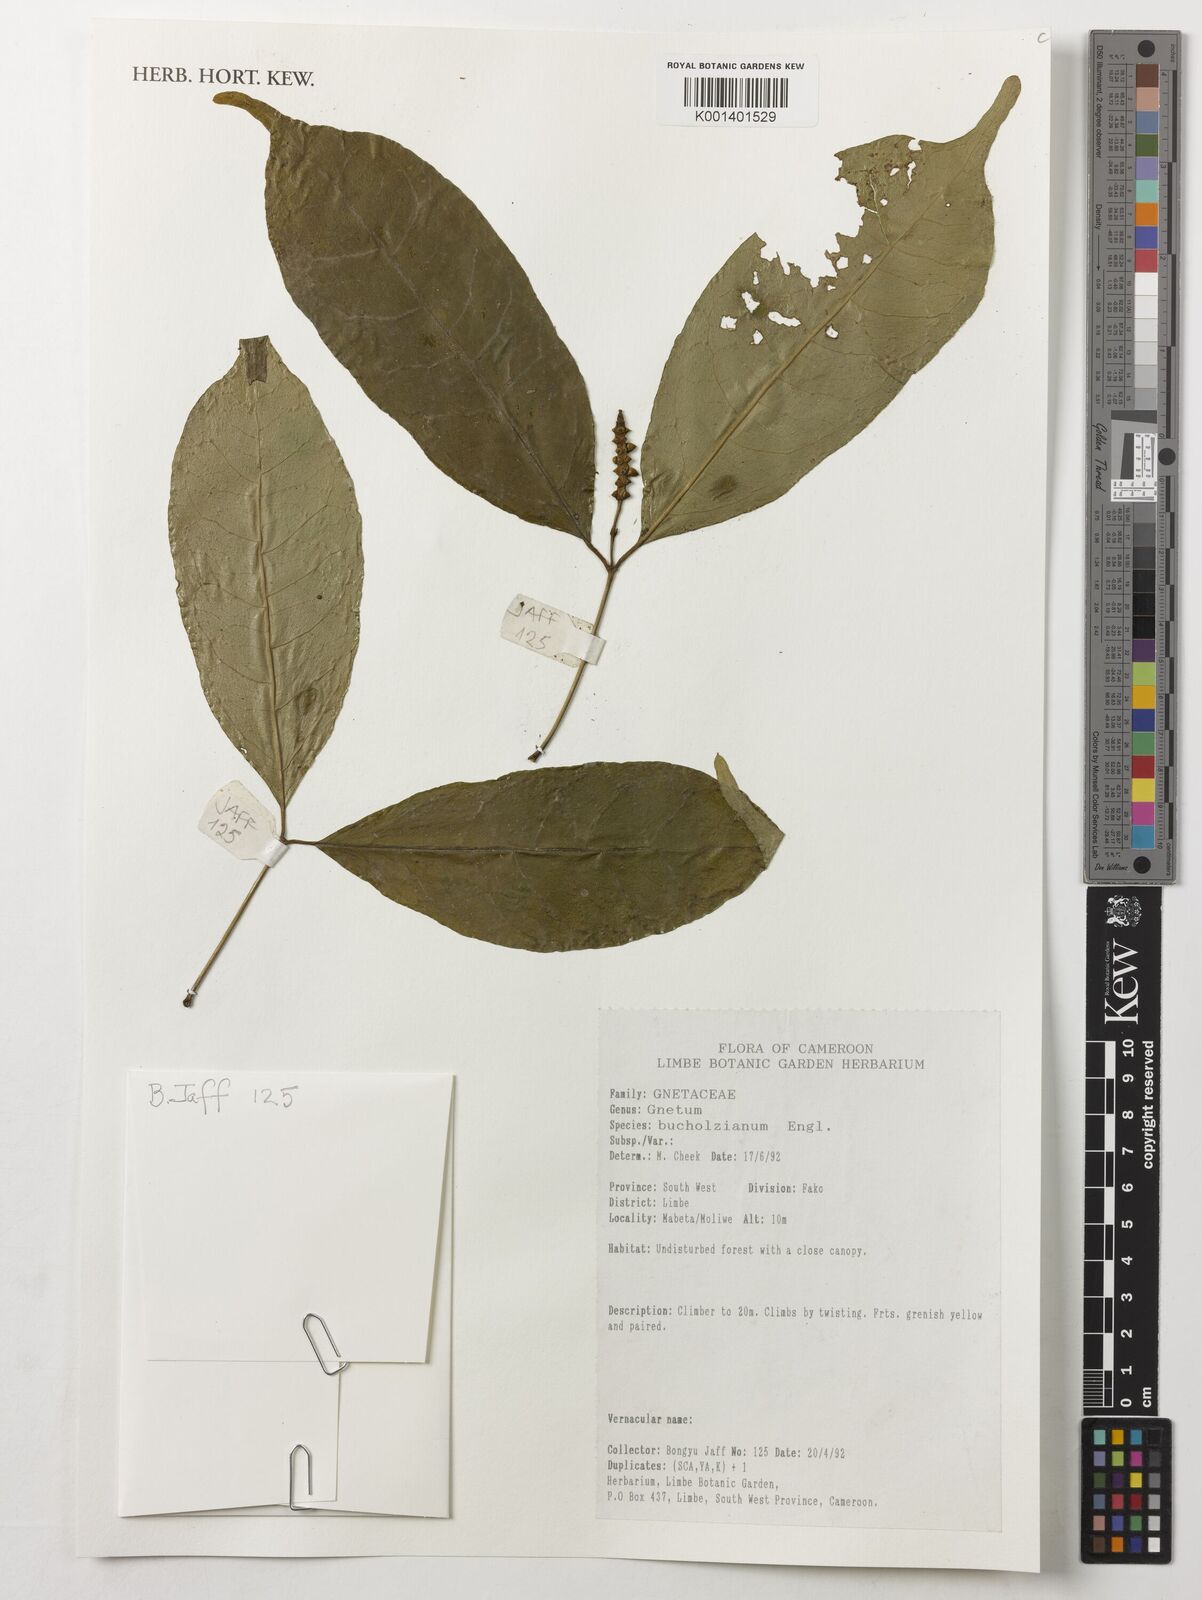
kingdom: Plantae
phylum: Tracheophyta
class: Gnetopsida
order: Gnetales
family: Gnetaceae
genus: Gnetum
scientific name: Gnetum buchholzianum
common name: Eru
